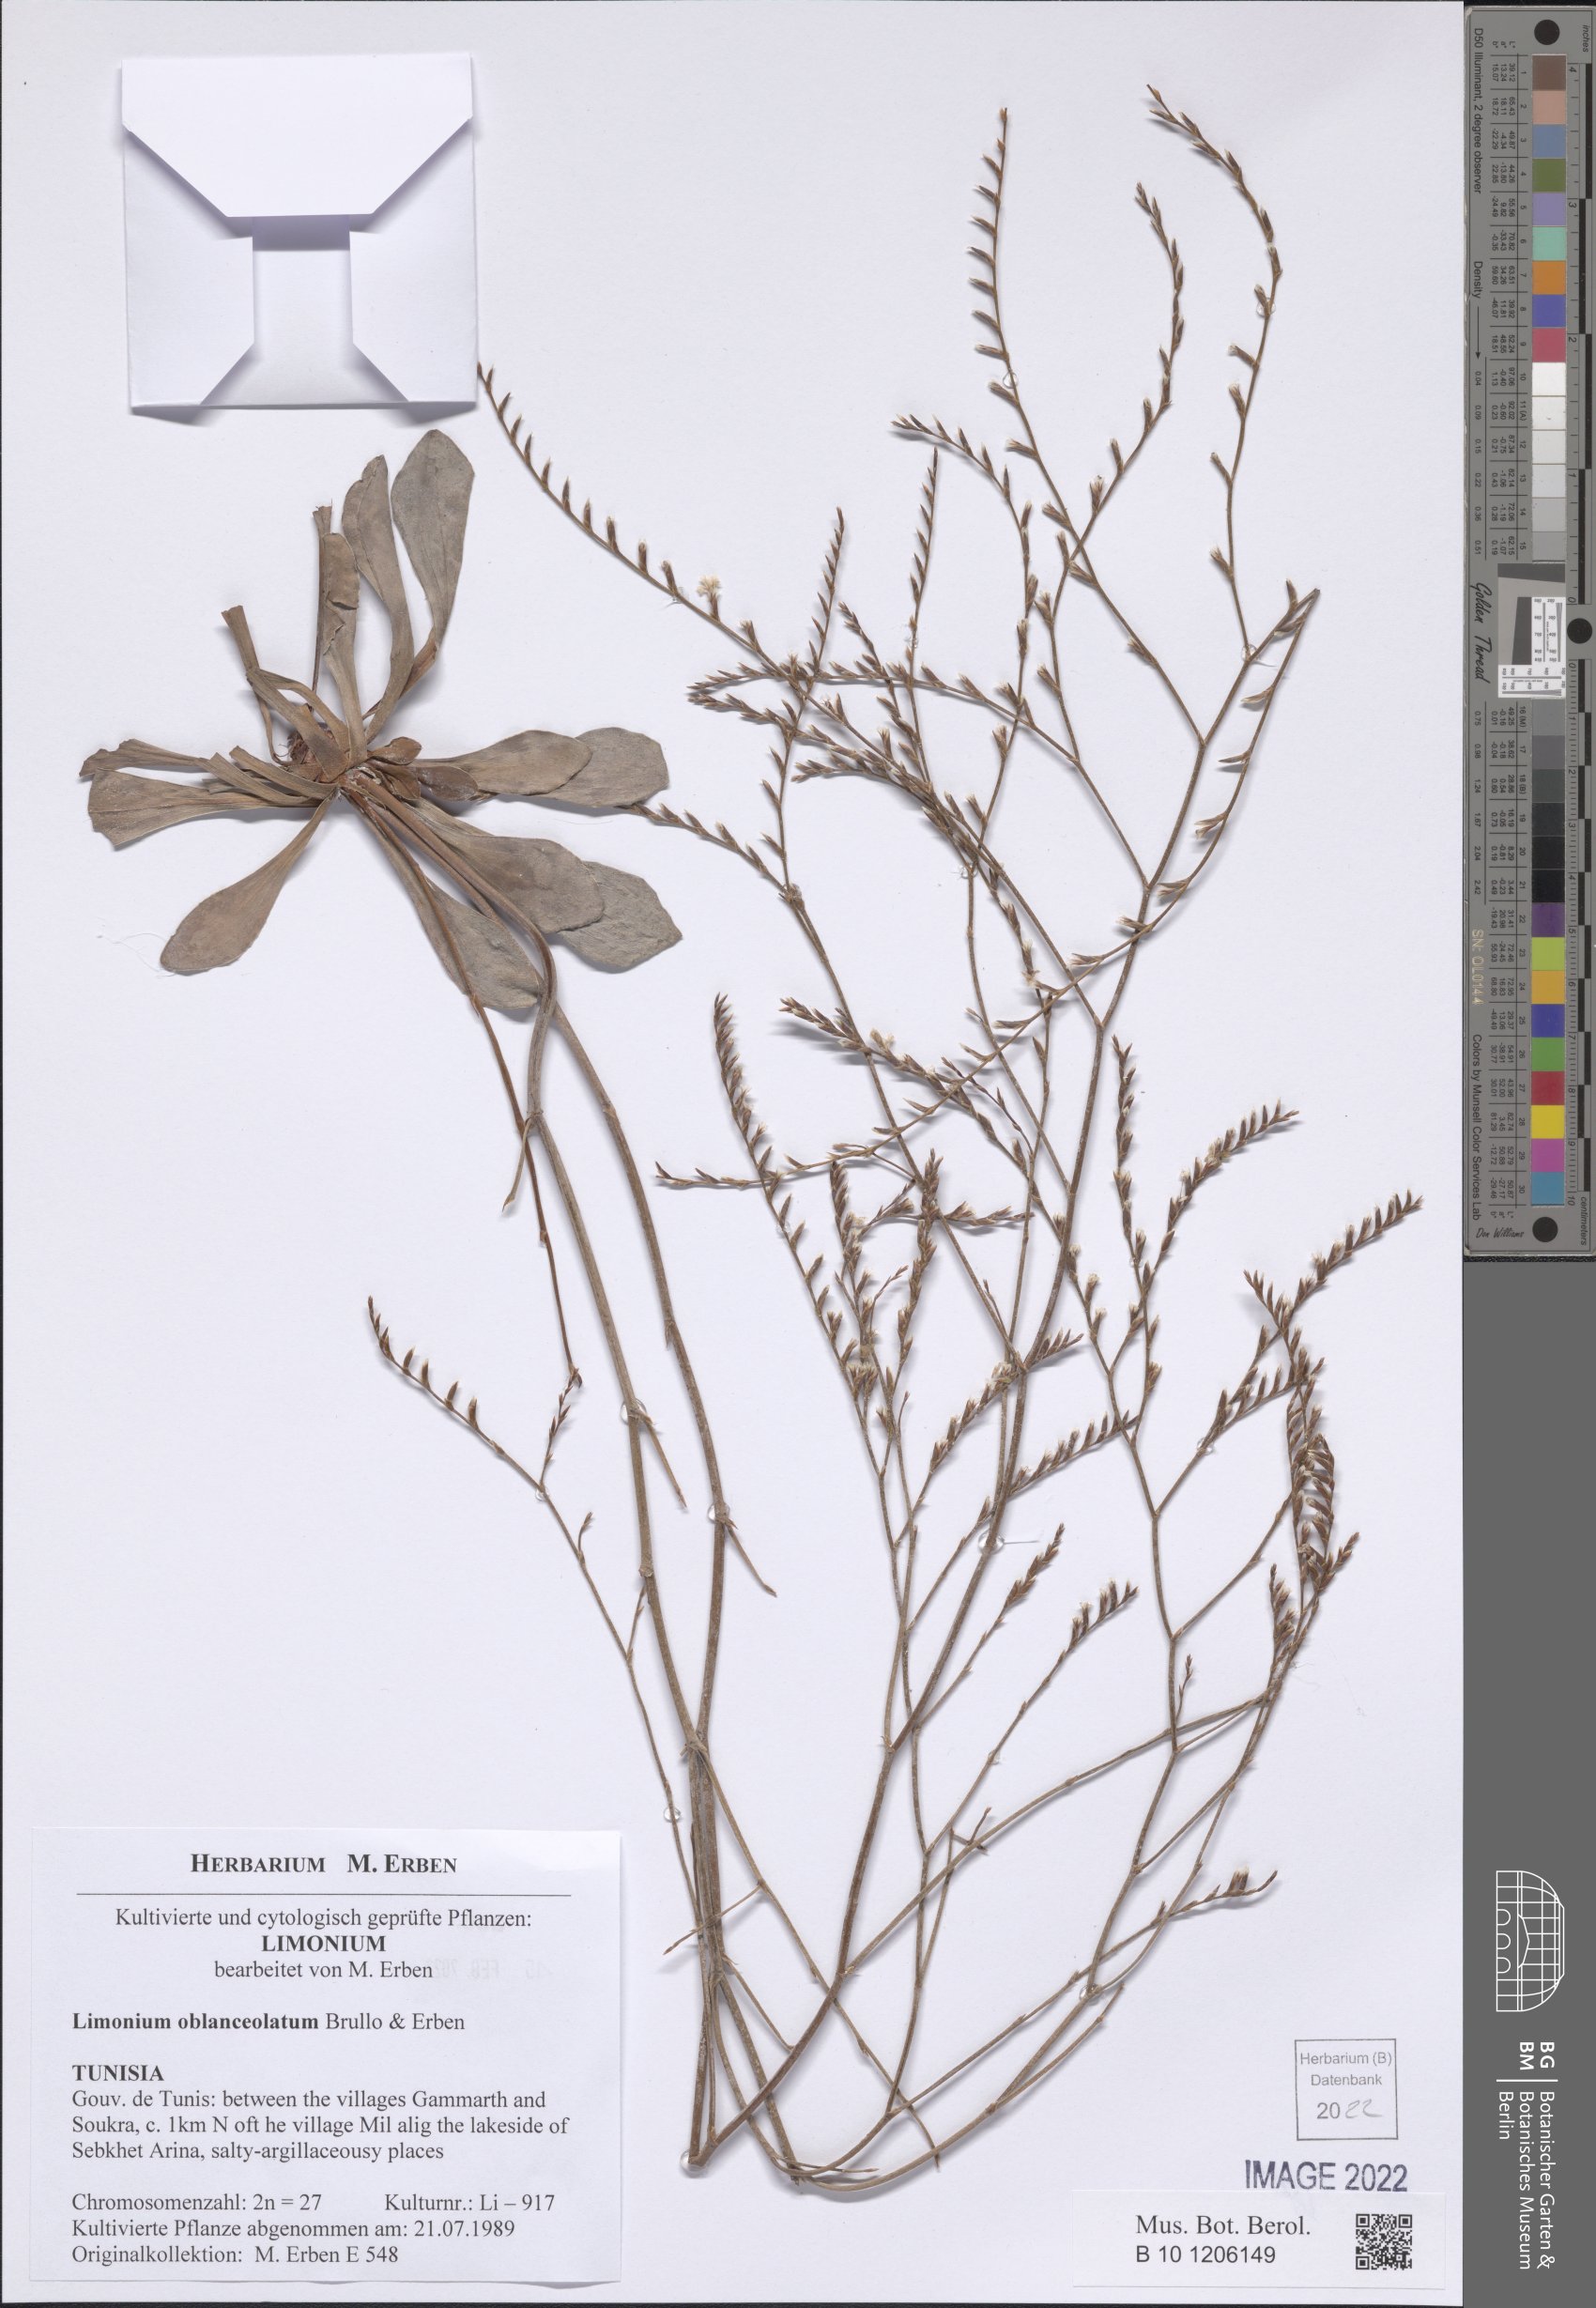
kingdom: Plantae
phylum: Tracheophyta
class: Magnoliopsida
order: Caryophyllales
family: Plumbaginaceae
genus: Limonium
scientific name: Limonium oblanceolatum
